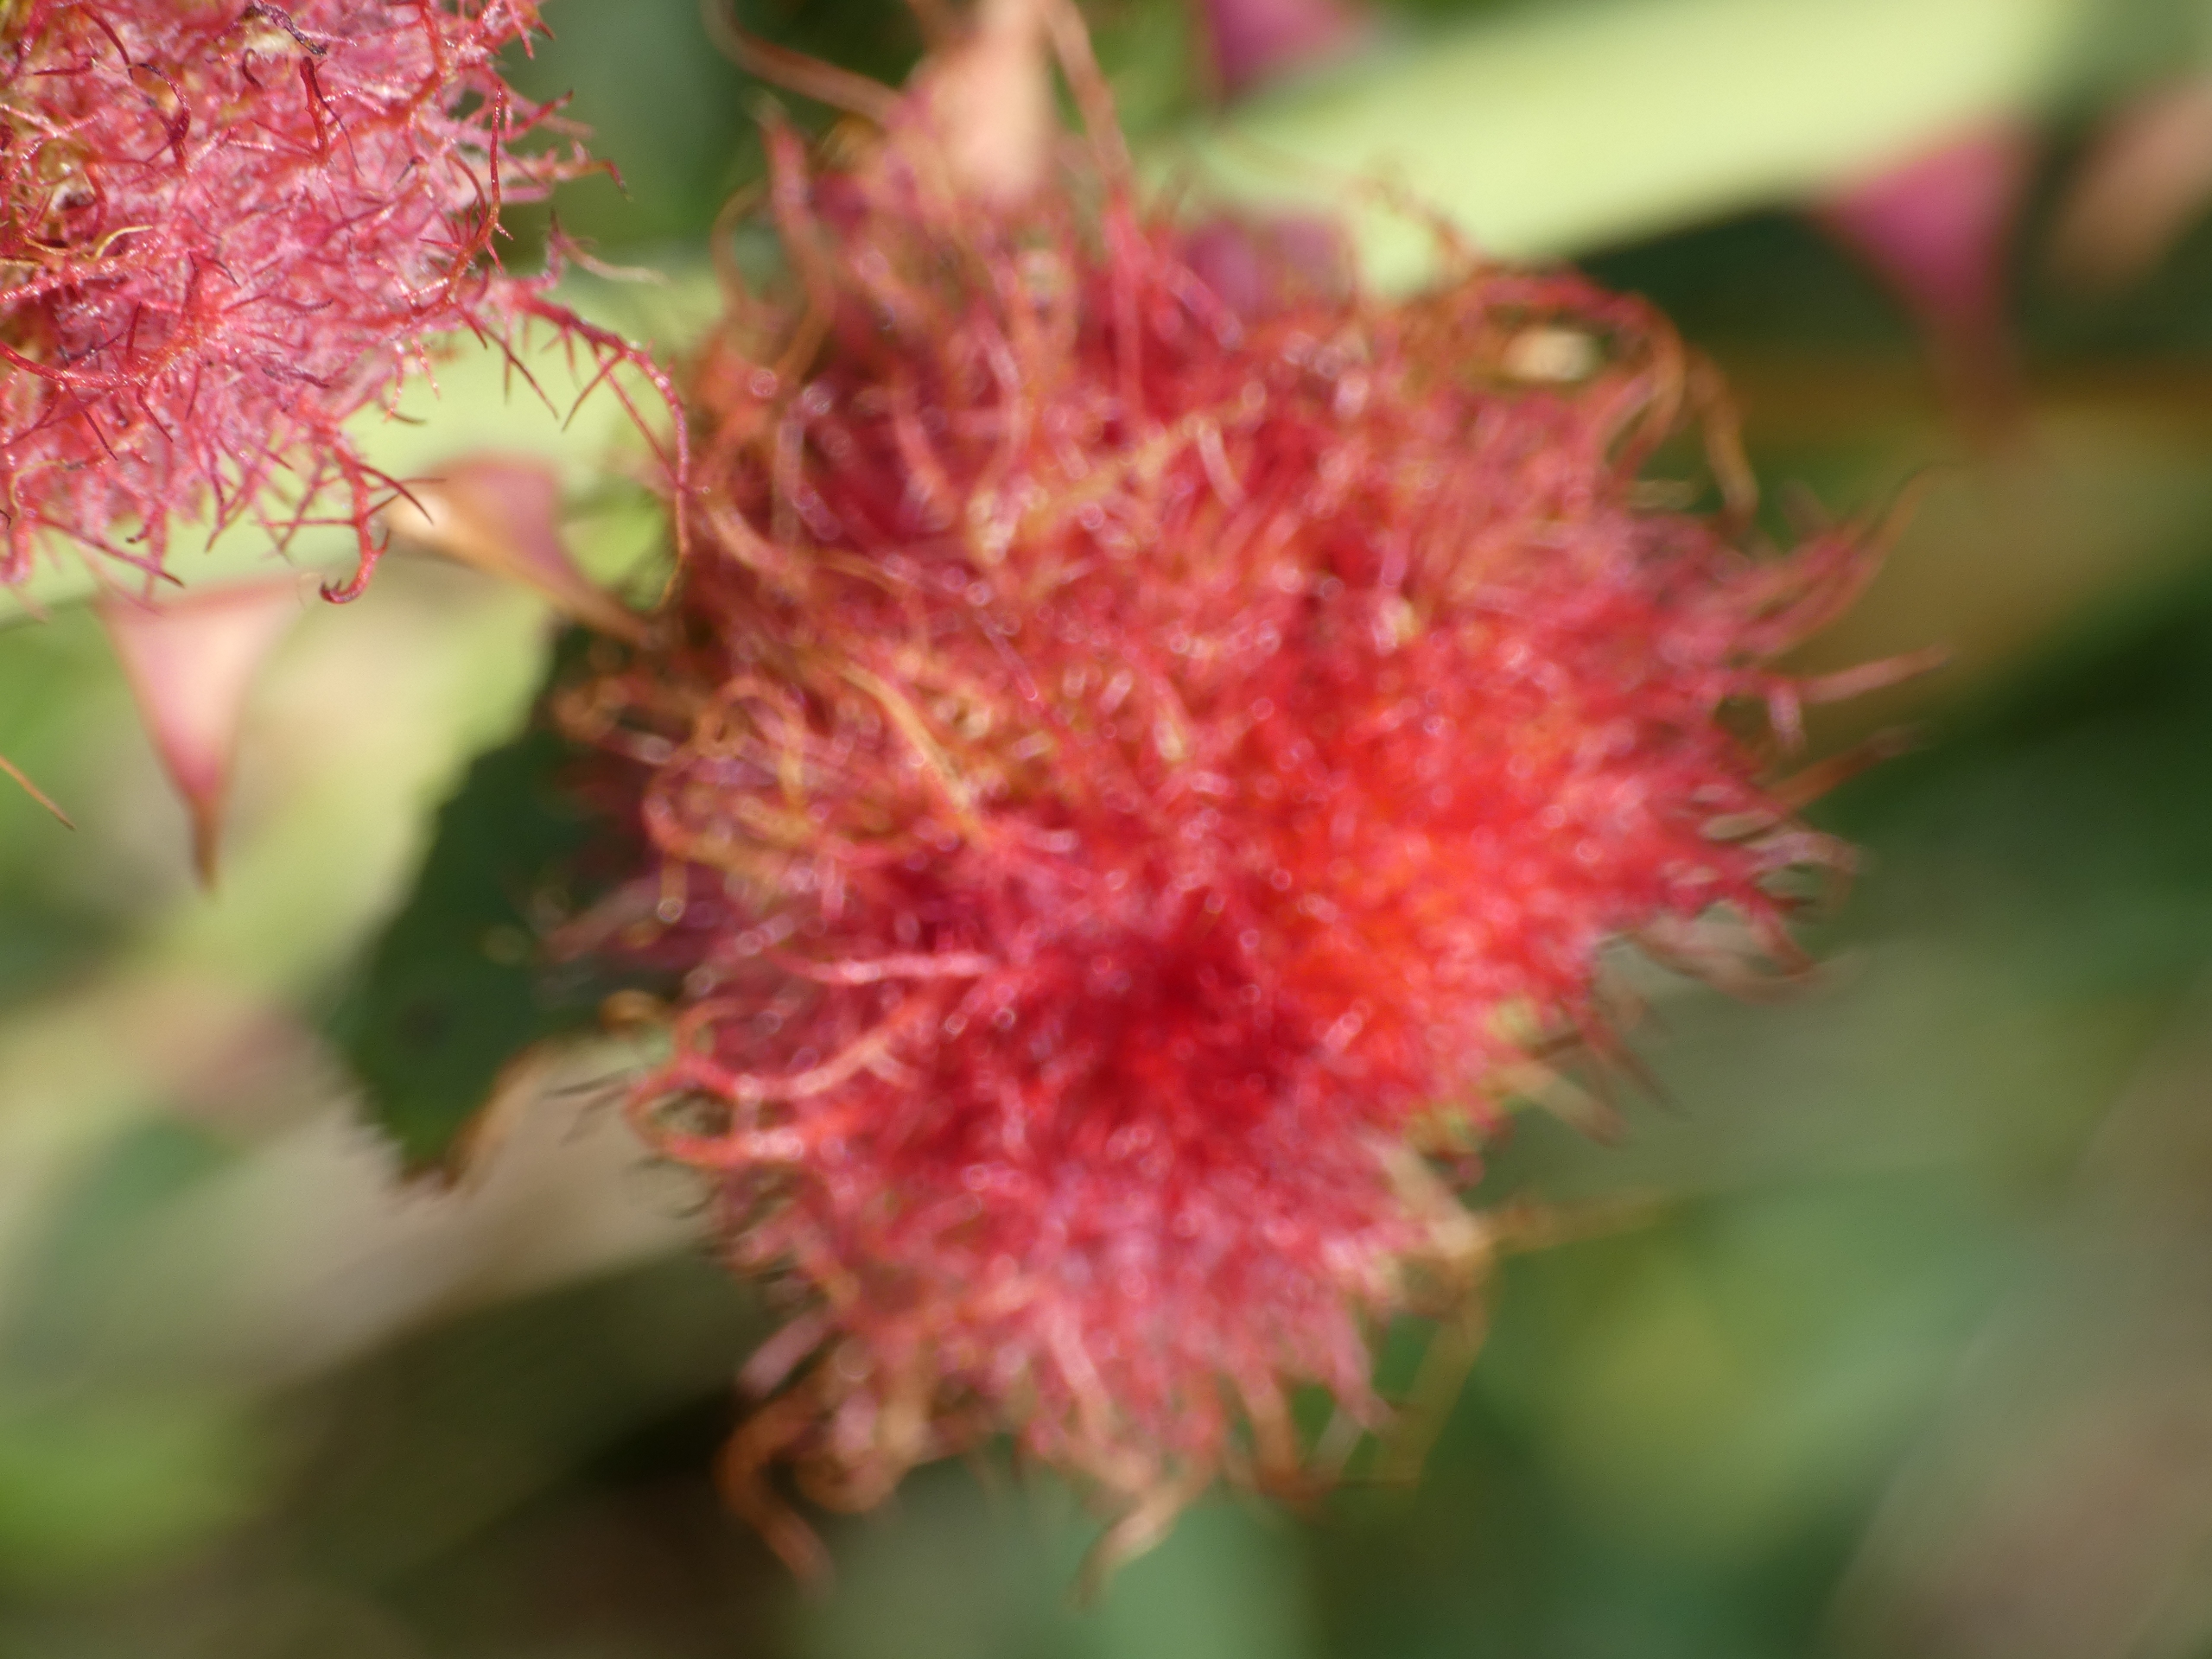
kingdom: Animalia
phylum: Arthropoda
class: Insecta
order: Hymenoptera
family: Cynipidae
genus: Diplolepis
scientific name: Diplolepis rosae
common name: Bedeguargalhveps
